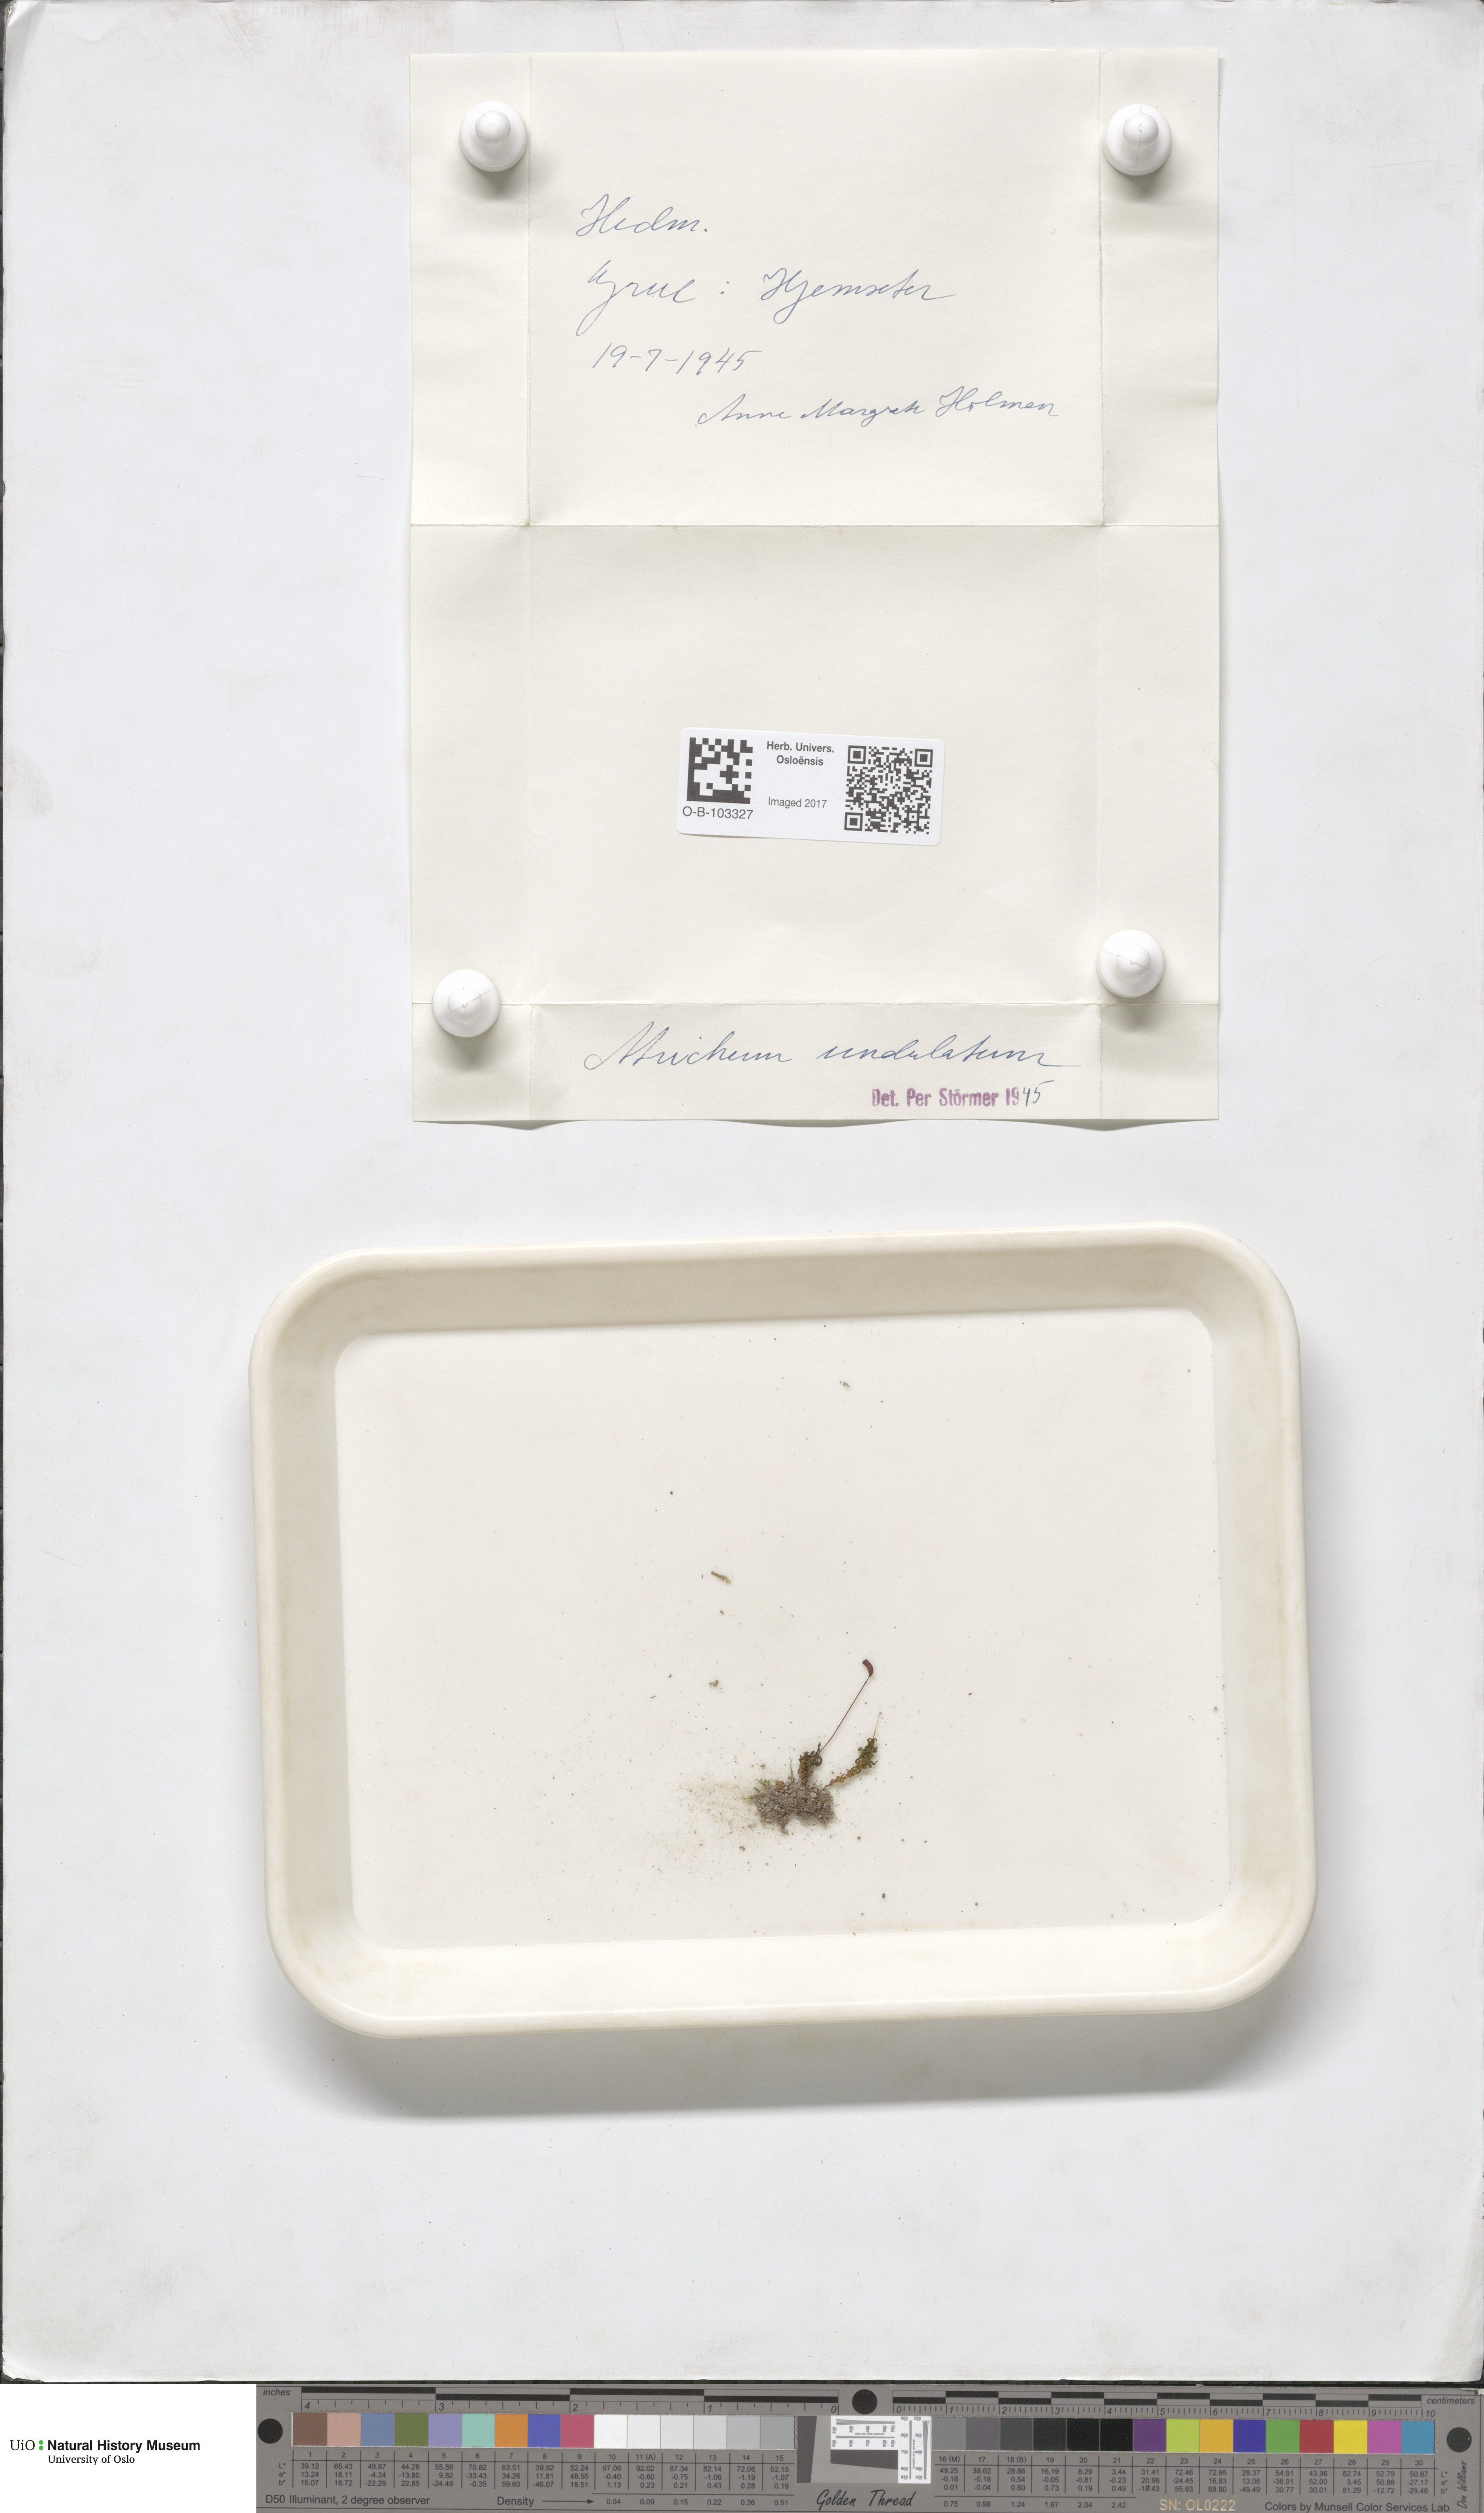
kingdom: Plantae
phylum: Bryophyta
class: Polytrichopsida
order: Polytrichales
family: Polytrichaceae
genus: Atrichum
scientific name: Atrichum undulatum
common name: Common smoothcap
